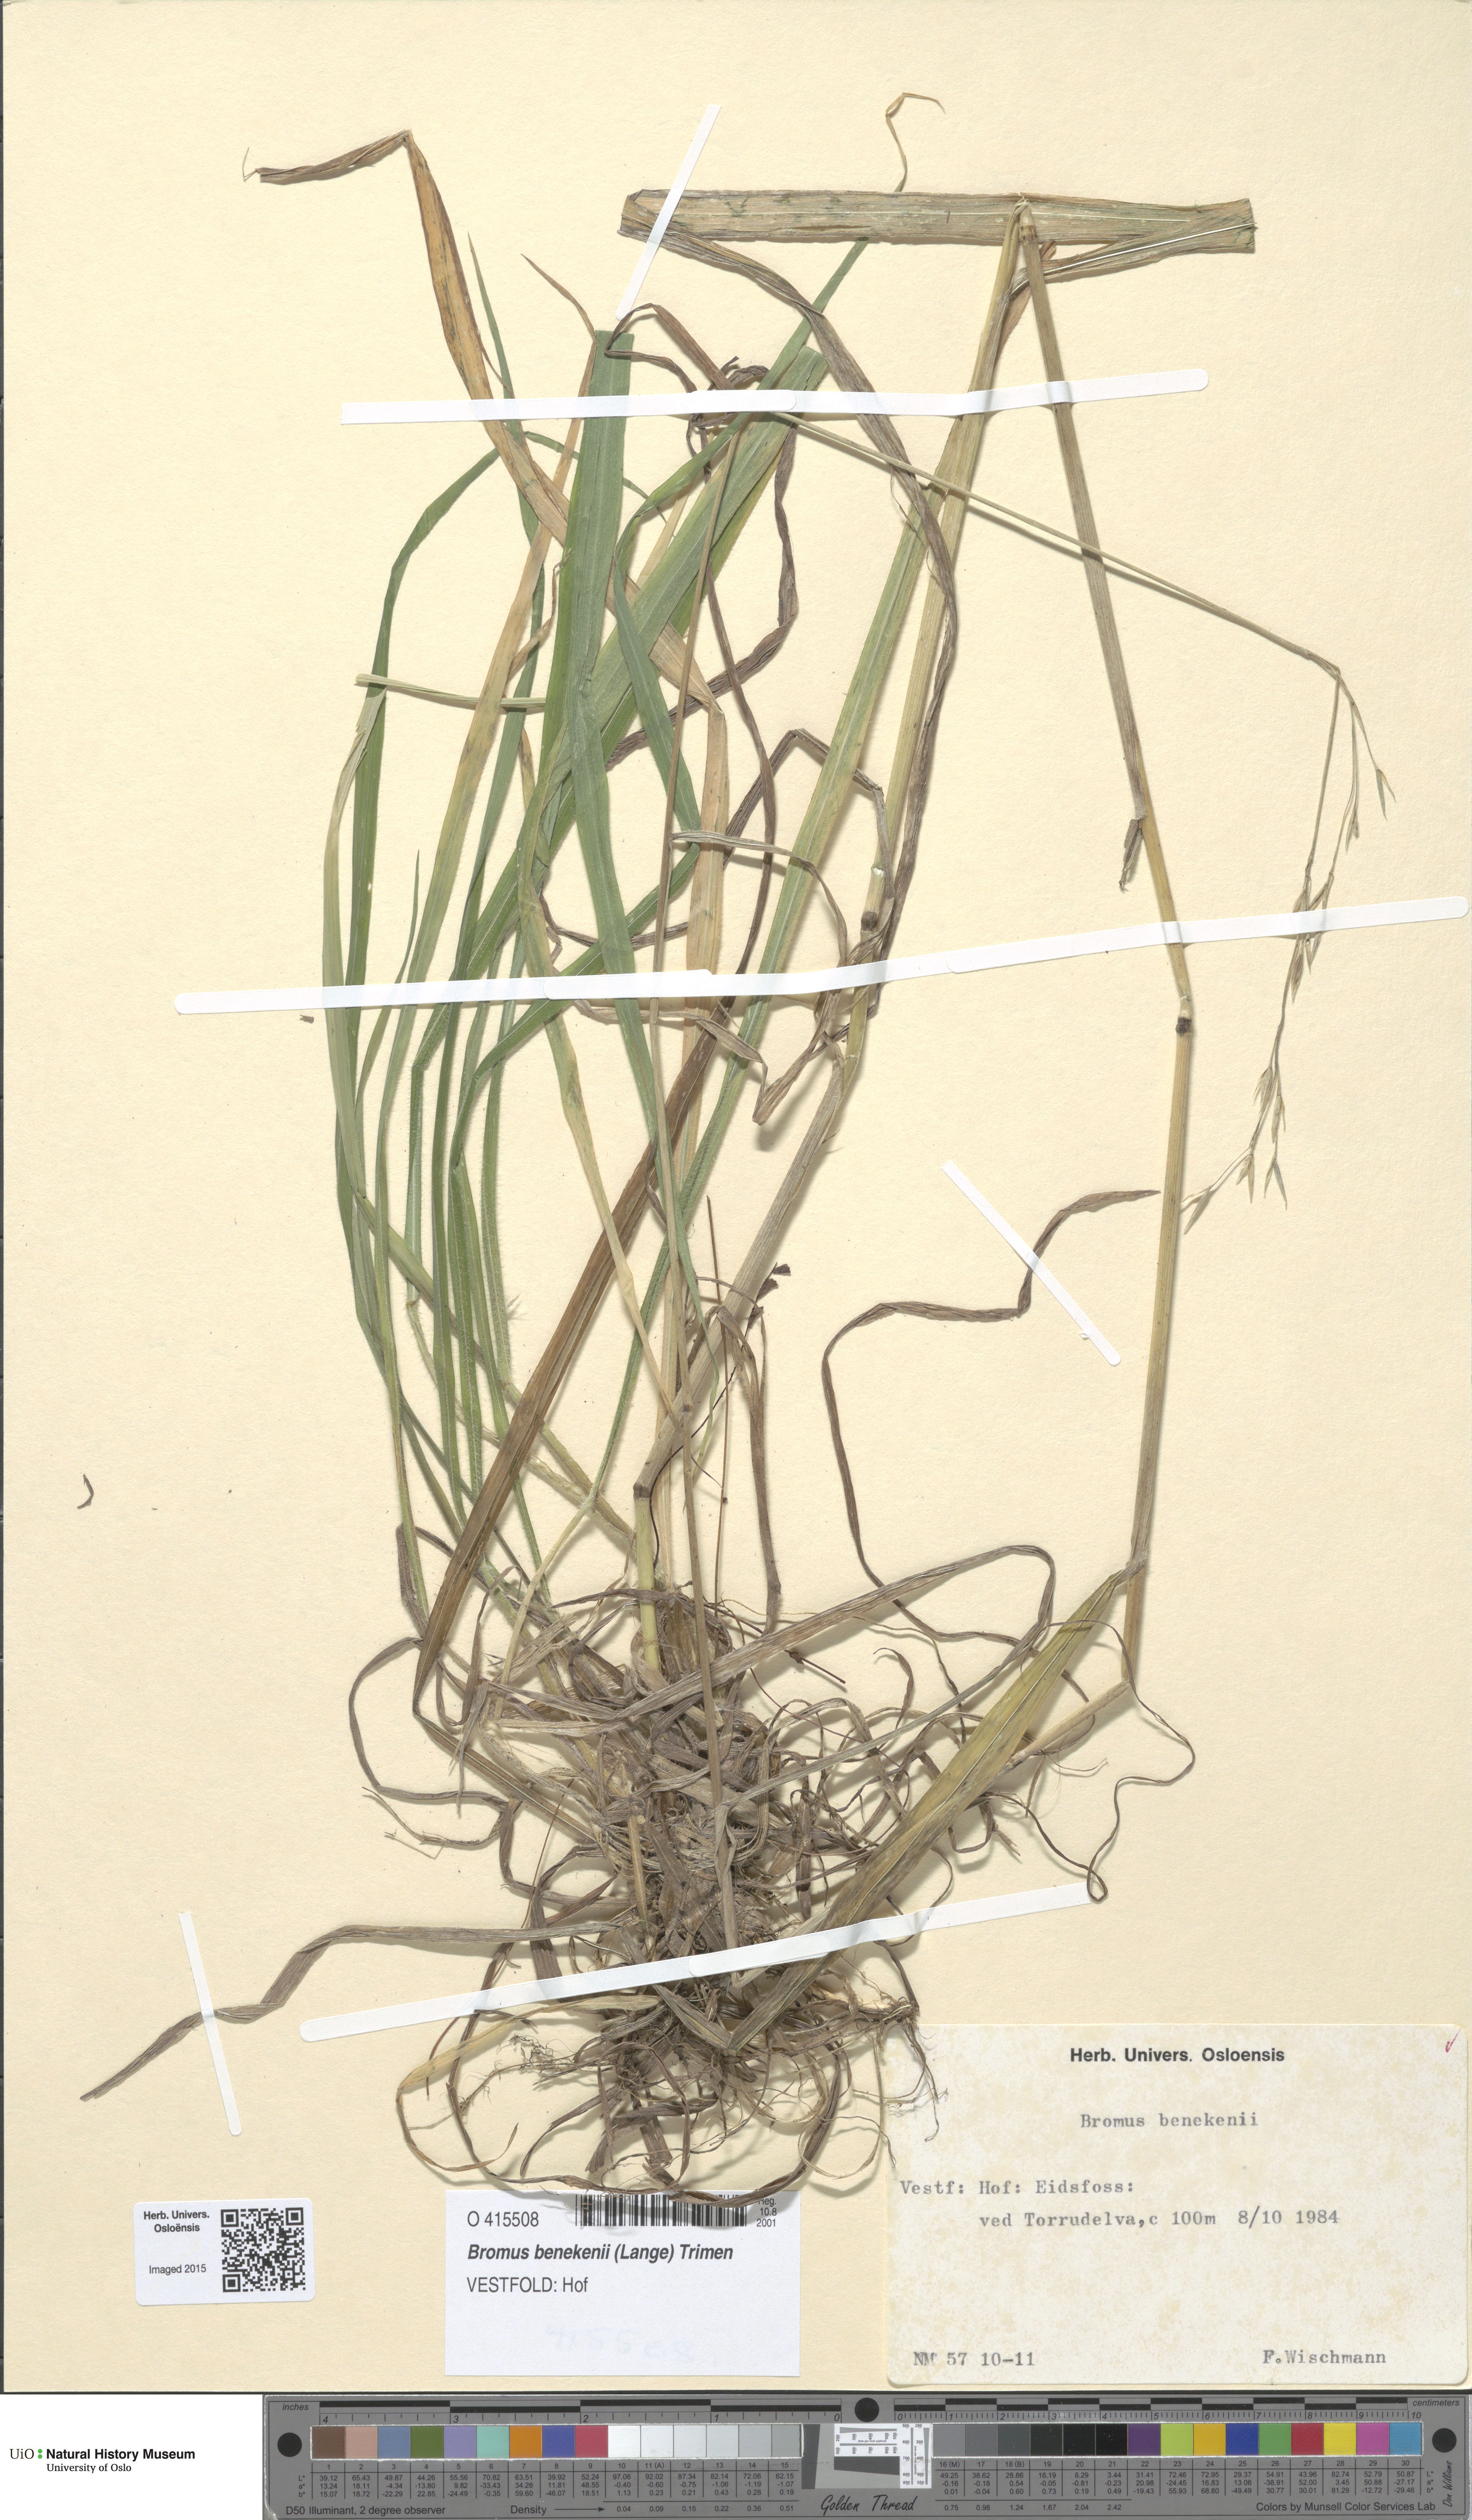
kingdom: Plantae
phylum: Tracheophyta
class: Liliopsida
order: Poales
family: Poaceae
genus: Bromus
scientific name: Bromus benekenii
